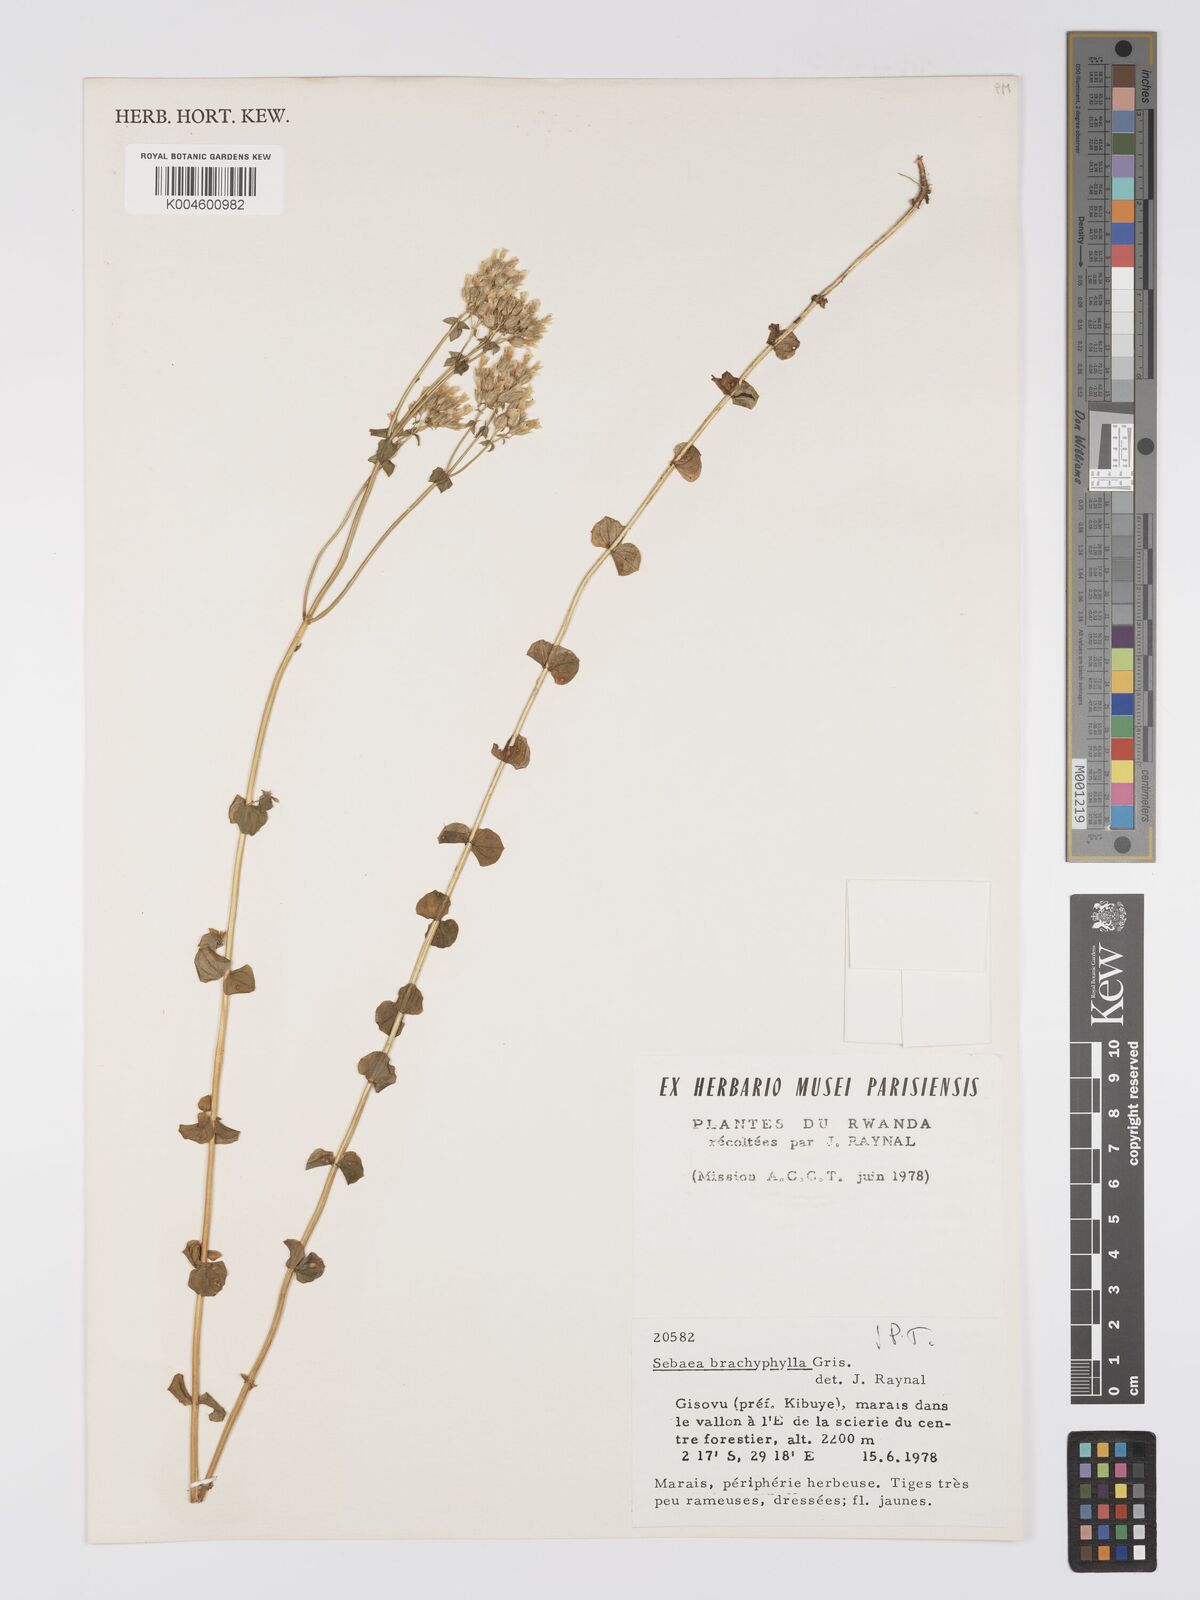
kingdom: Plantae
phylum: Tracheophyta
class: Magnoliopsida
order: Gentianales
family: Gentianaceae
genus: Sebaea
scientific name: Sebaea brachyphylla
